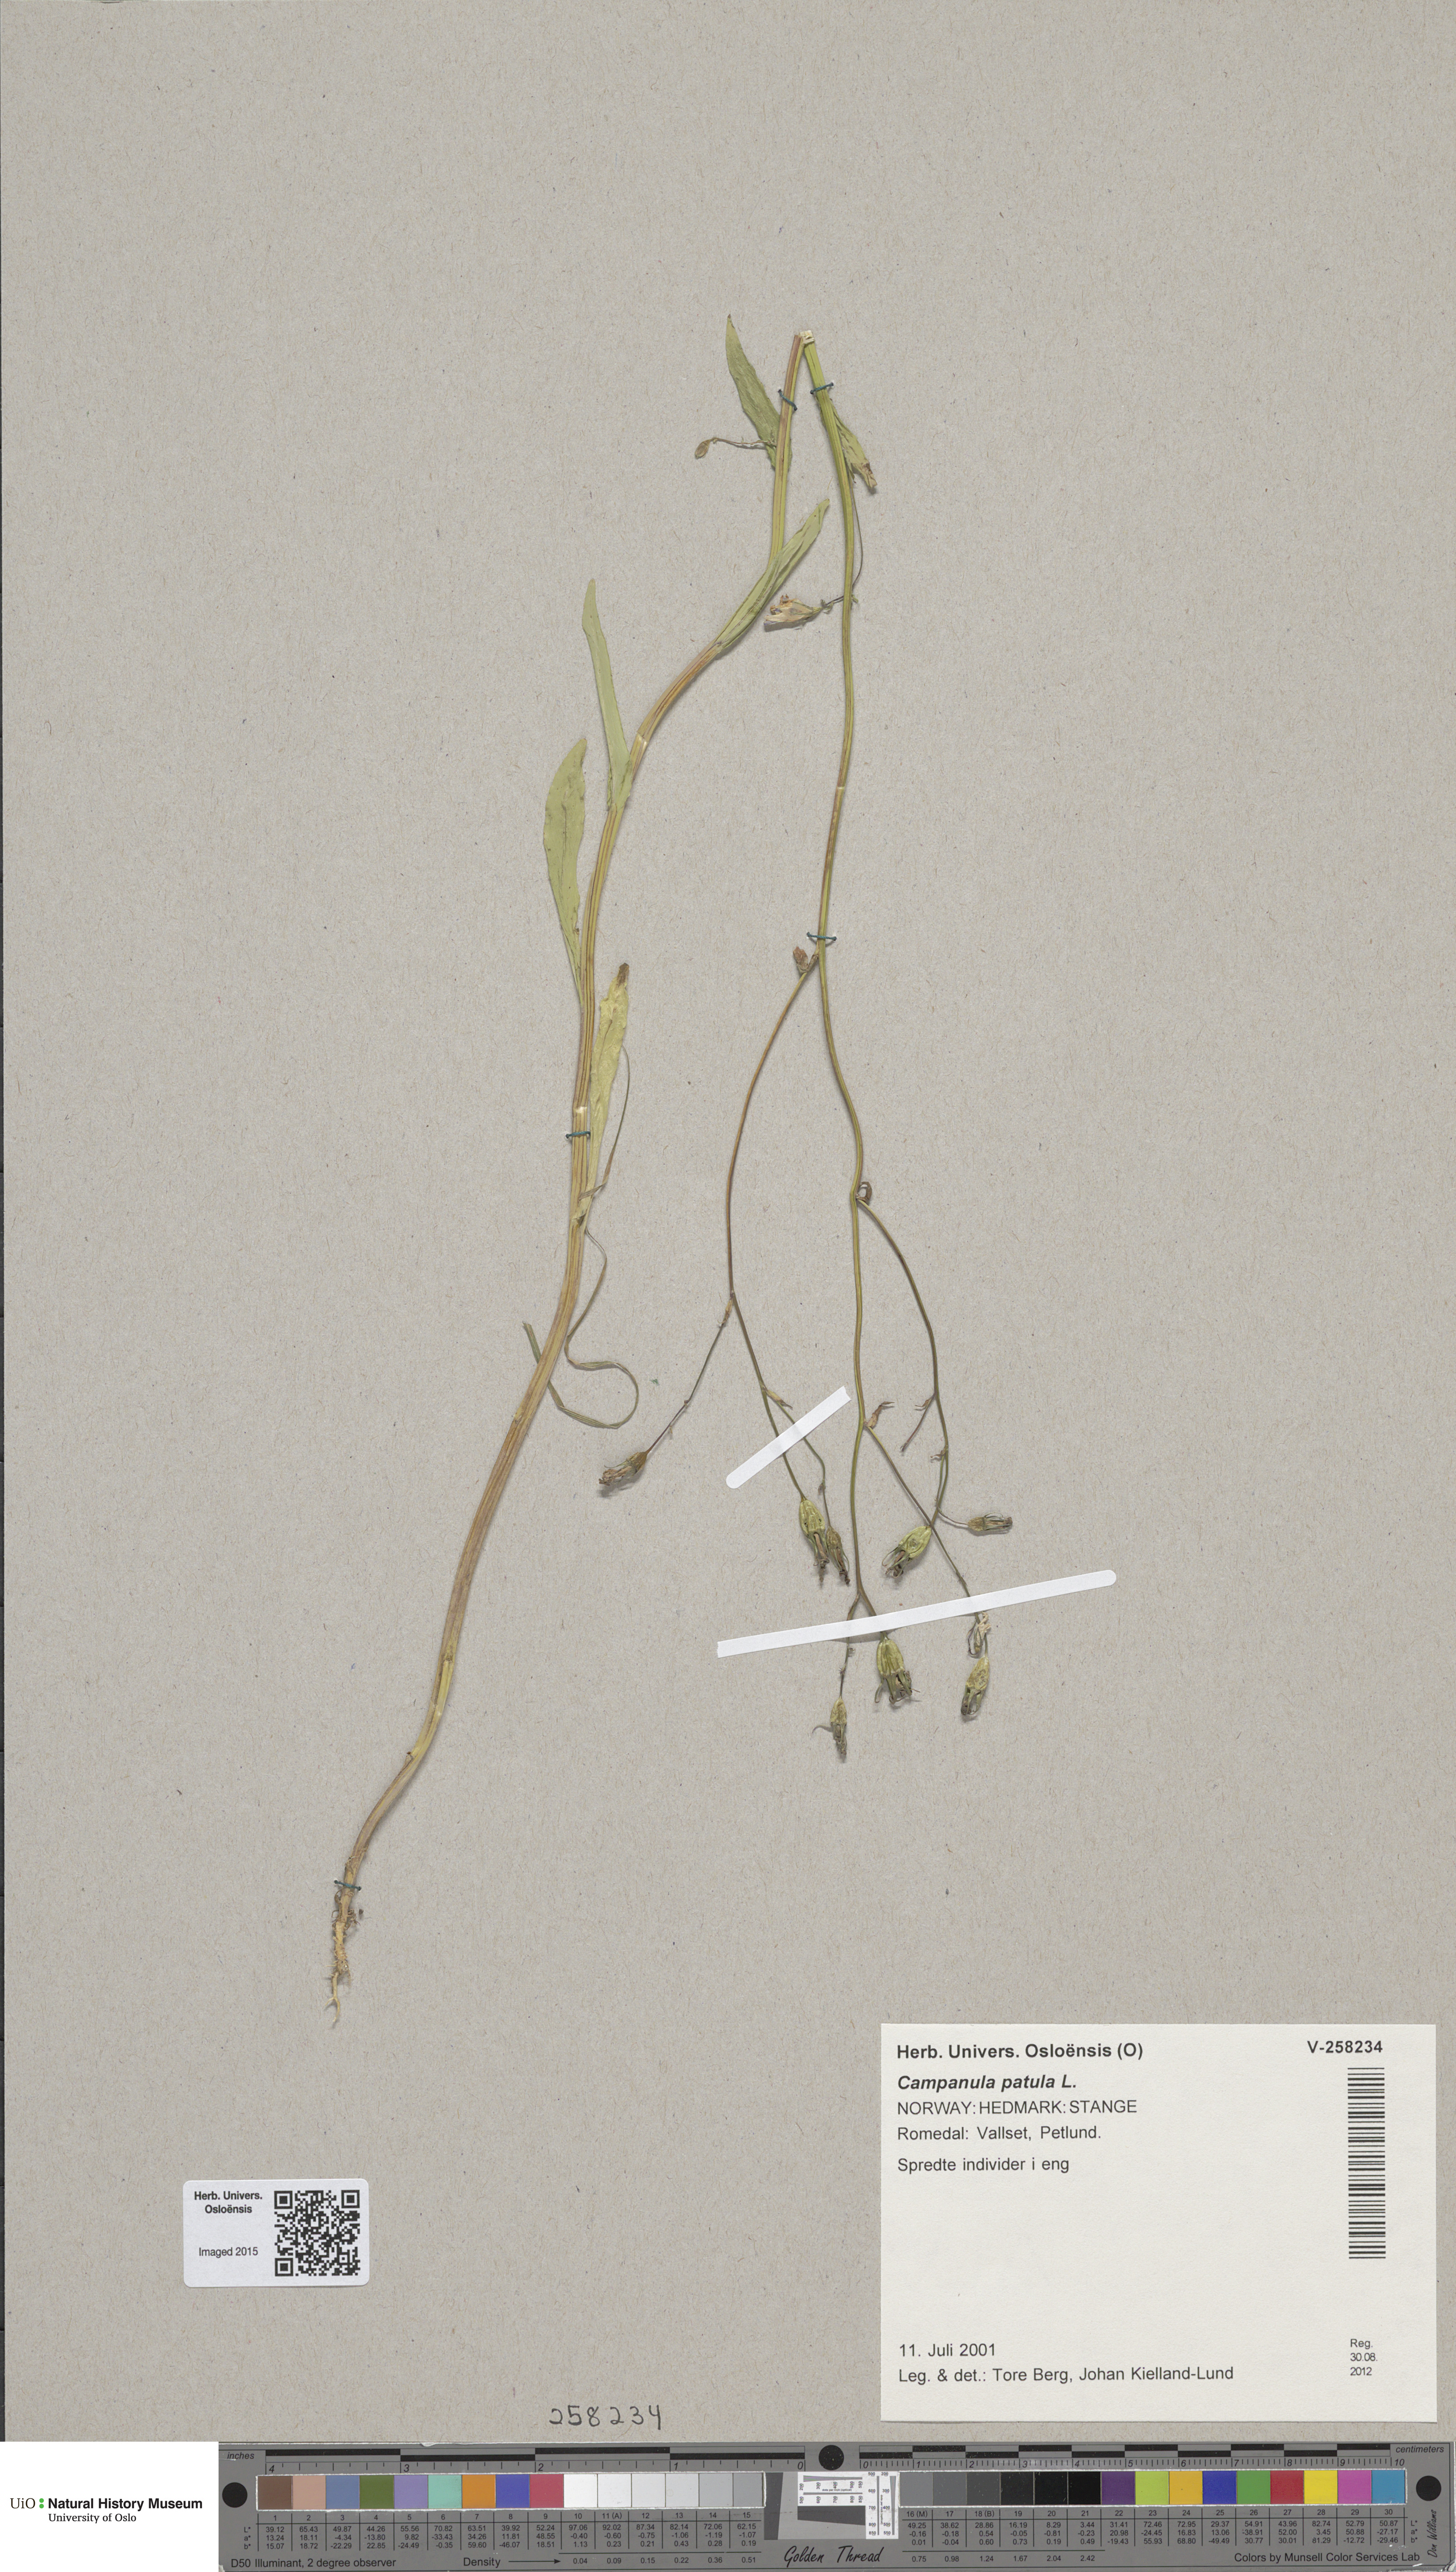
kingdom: Plantae
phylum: Tracheophyta
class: Magnoliopsida
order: Asterales
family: Campanulaceae
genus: Campanula
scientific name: Campanula patula
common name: Spreading bellflower
